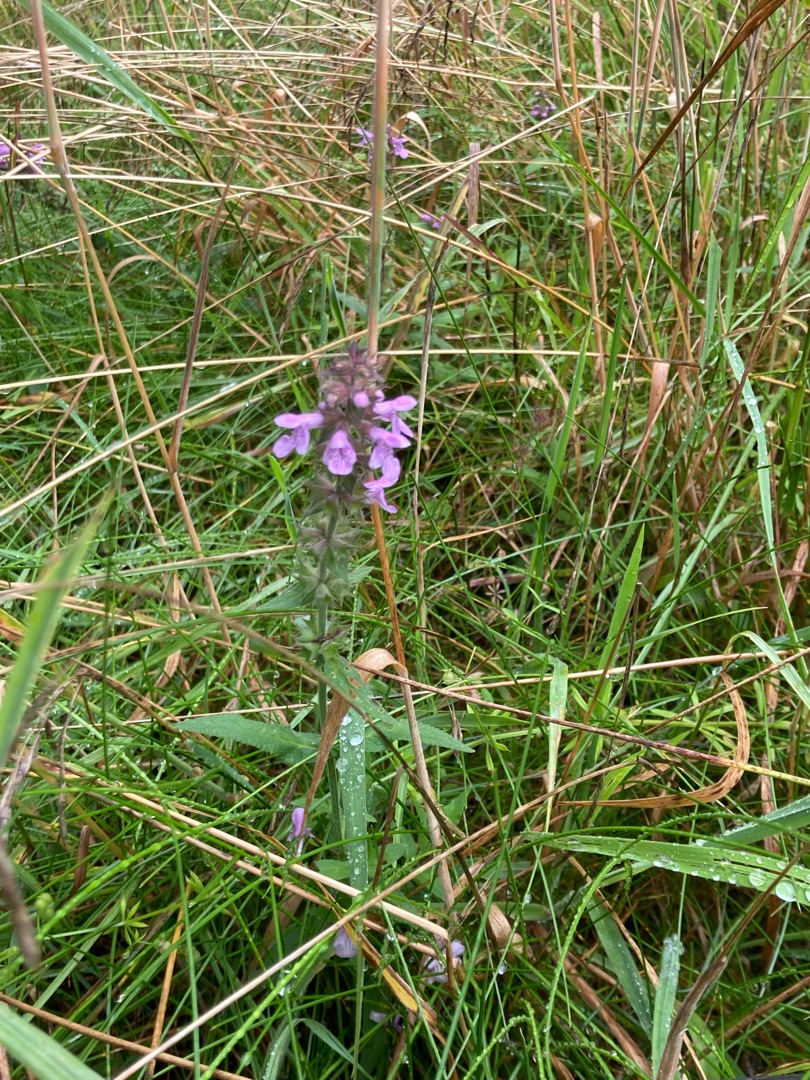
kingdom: Plantae
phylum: Tracheophyta
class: Magnoliopsida
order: Lamiales
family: Lamiaceae
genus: Stachys
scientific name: Stachys palustris
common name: Kær-galtetand
